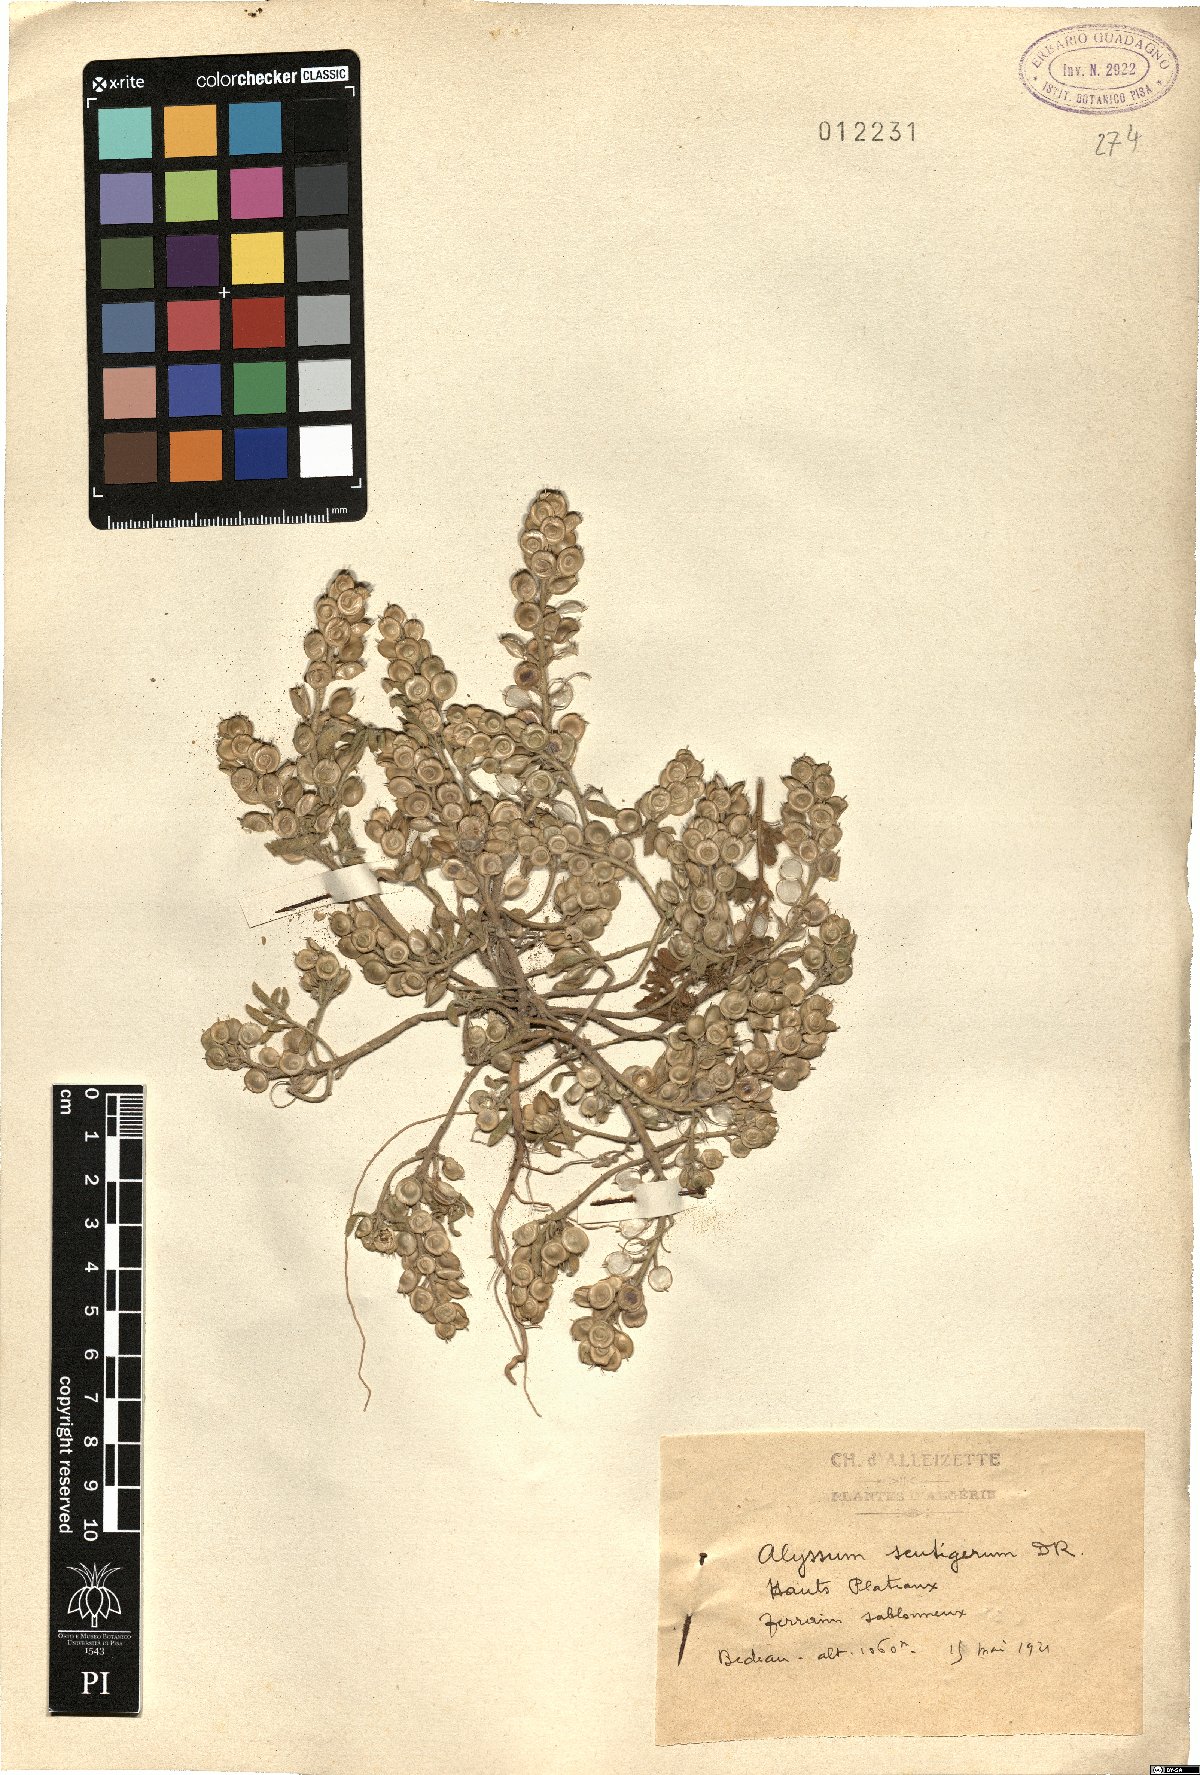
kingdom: Plantae
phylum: Tracheophyta
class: Magnoliopsida
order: Brassicales
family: Brassicaceae
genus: Alyssum
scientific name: Alyssum scutigerum
